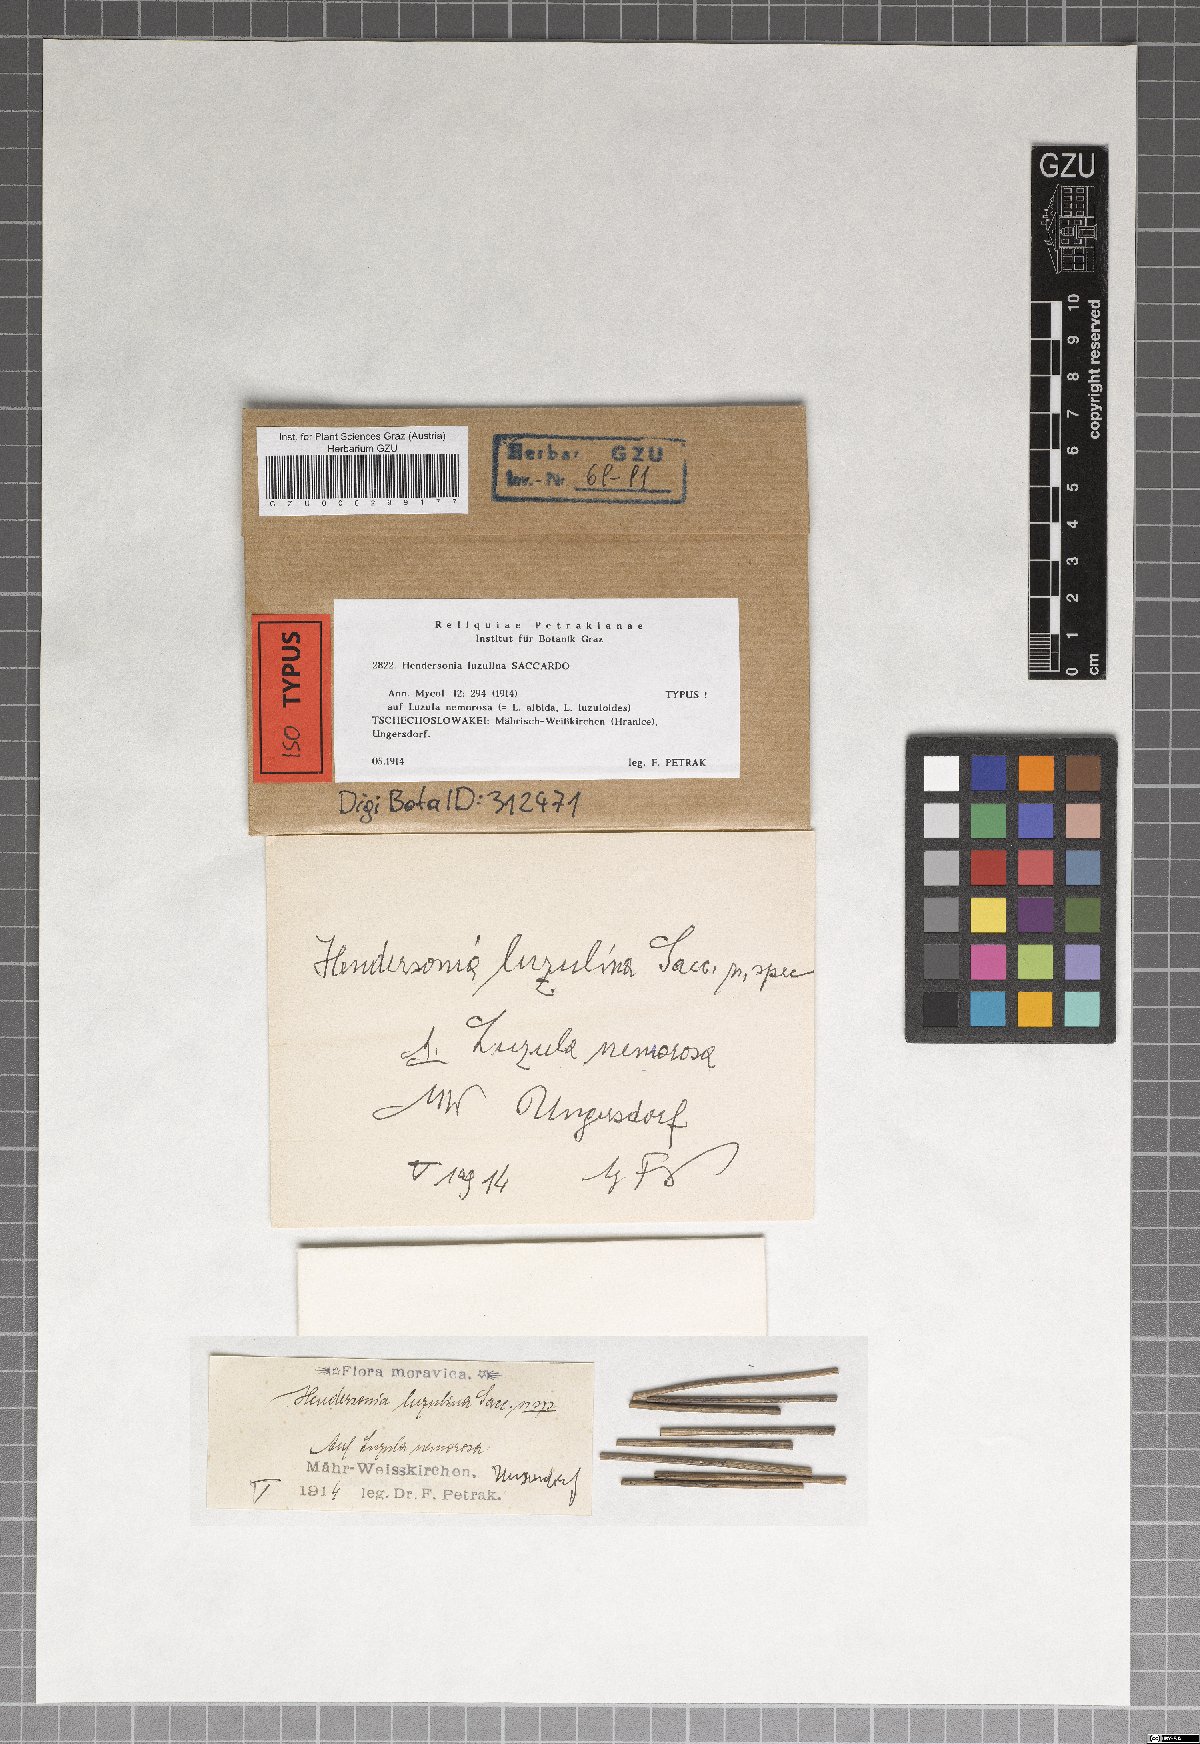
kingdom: Fungi
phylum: Ascomycota
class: Dothideomycetes
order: Pleosporales
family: Phaeosphaeriaceae
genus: Hendersonia
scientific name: Hendersonia luzulina
